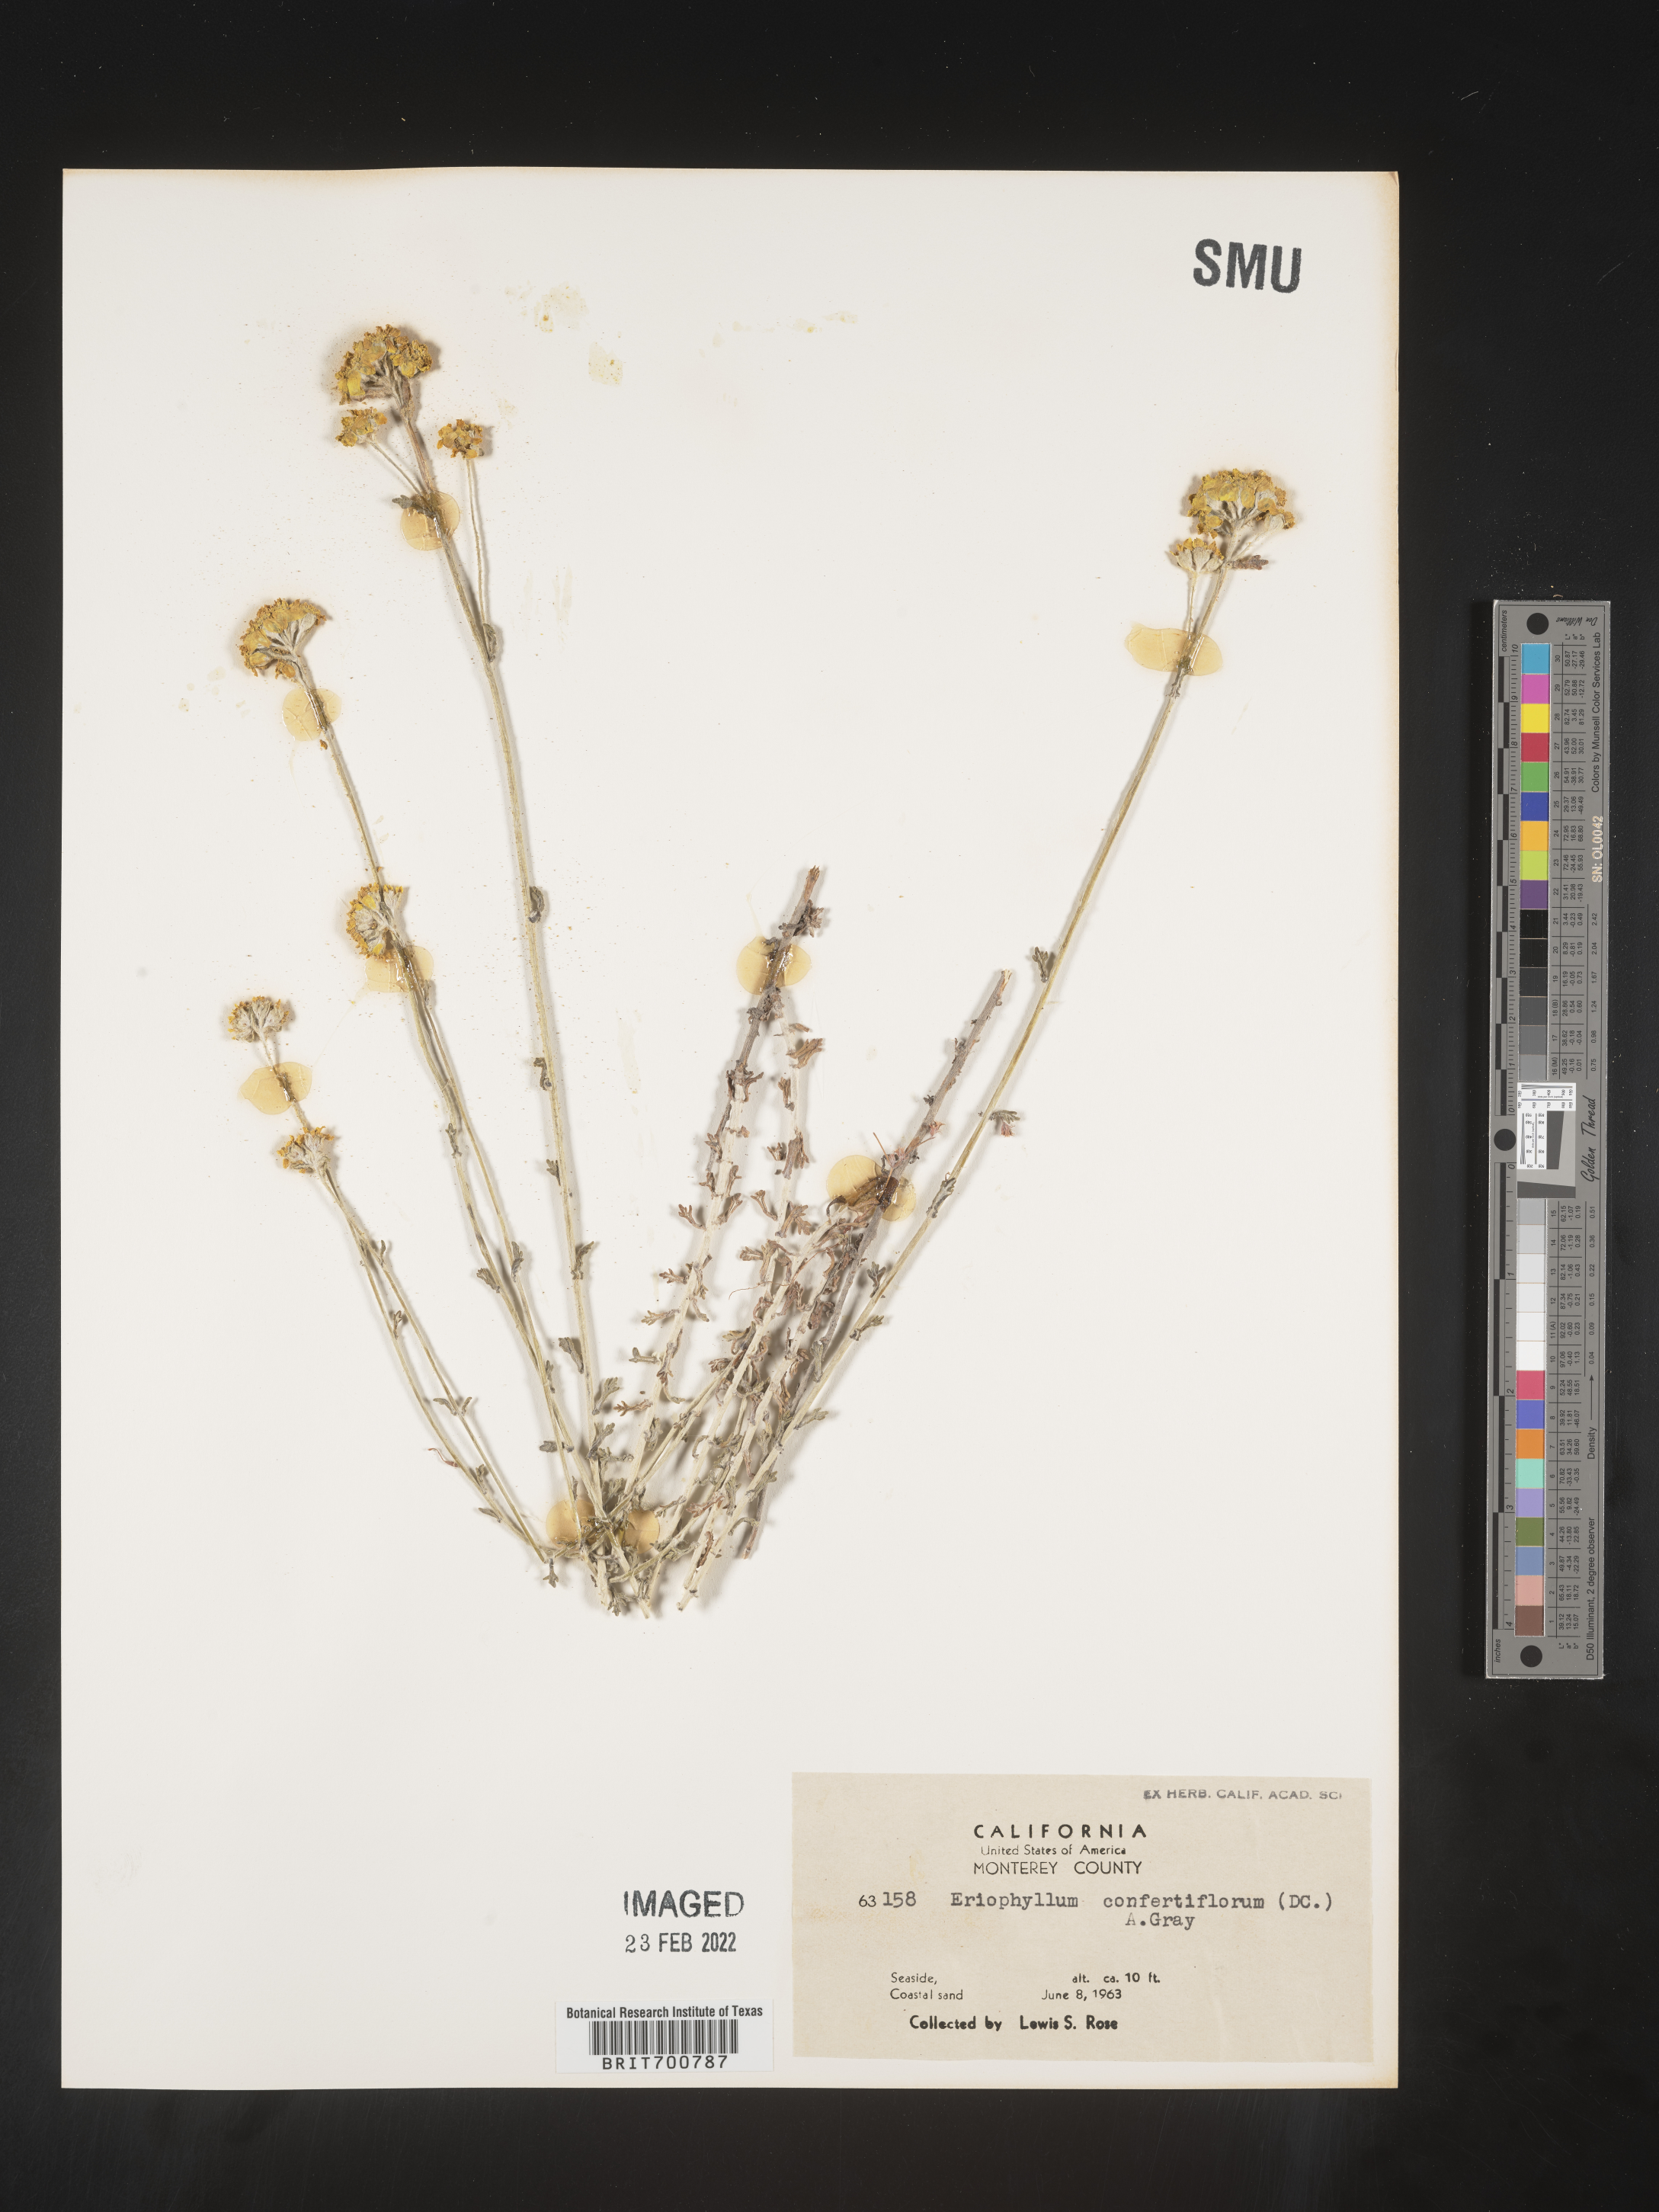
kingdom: Plantae
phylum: Tracheophyta
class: Magnoliopsida
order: Asterales
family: Asteraceae
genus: Eriophyllum
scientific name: Eriophyllum confertiflorum
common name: Golden-yarrow
